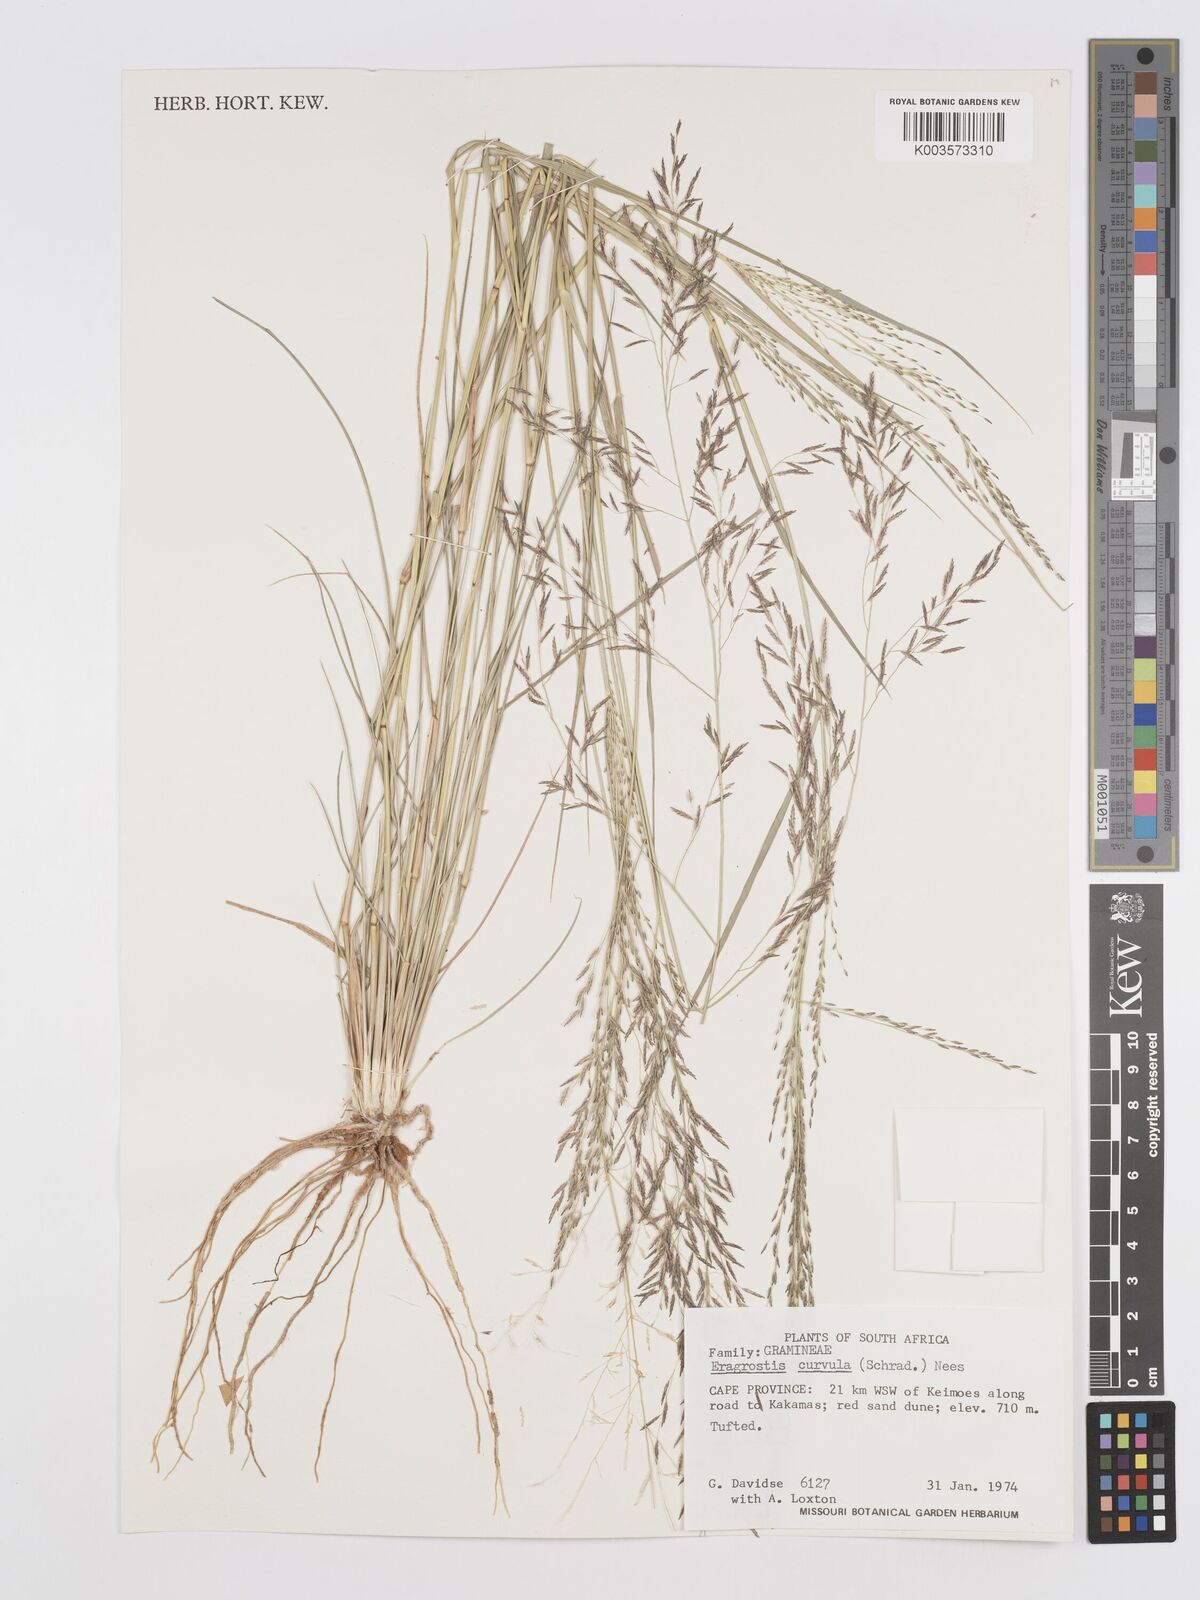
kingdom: Plantae
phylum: Tracheophyta
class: Liliopsida
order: Poales
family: Poaceae
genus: Eragrostis
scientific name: Eragrostis curvula
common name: African love-grass
